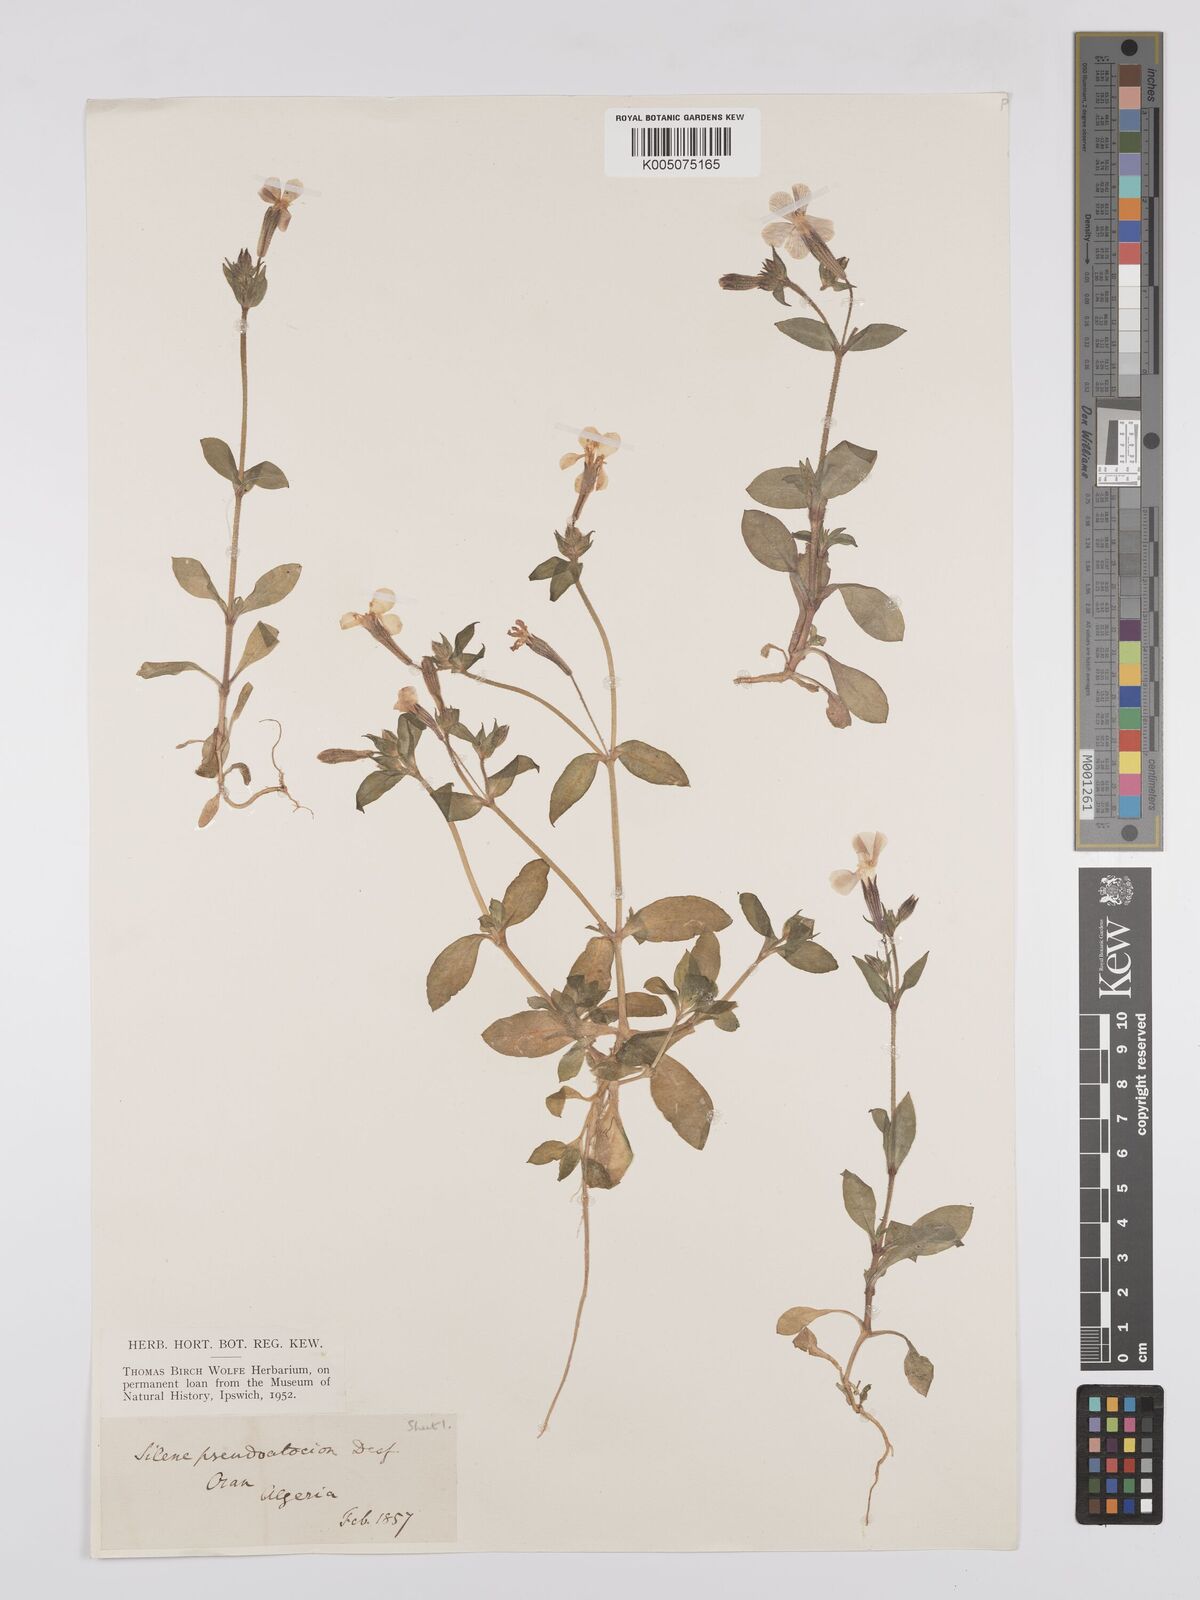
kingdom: Plantae
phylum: Tracheophyta
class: Magnoliopsida
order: Caryophyllales
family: Caryophyllaceae
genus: Silene
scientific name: Silene pseudoatocion
